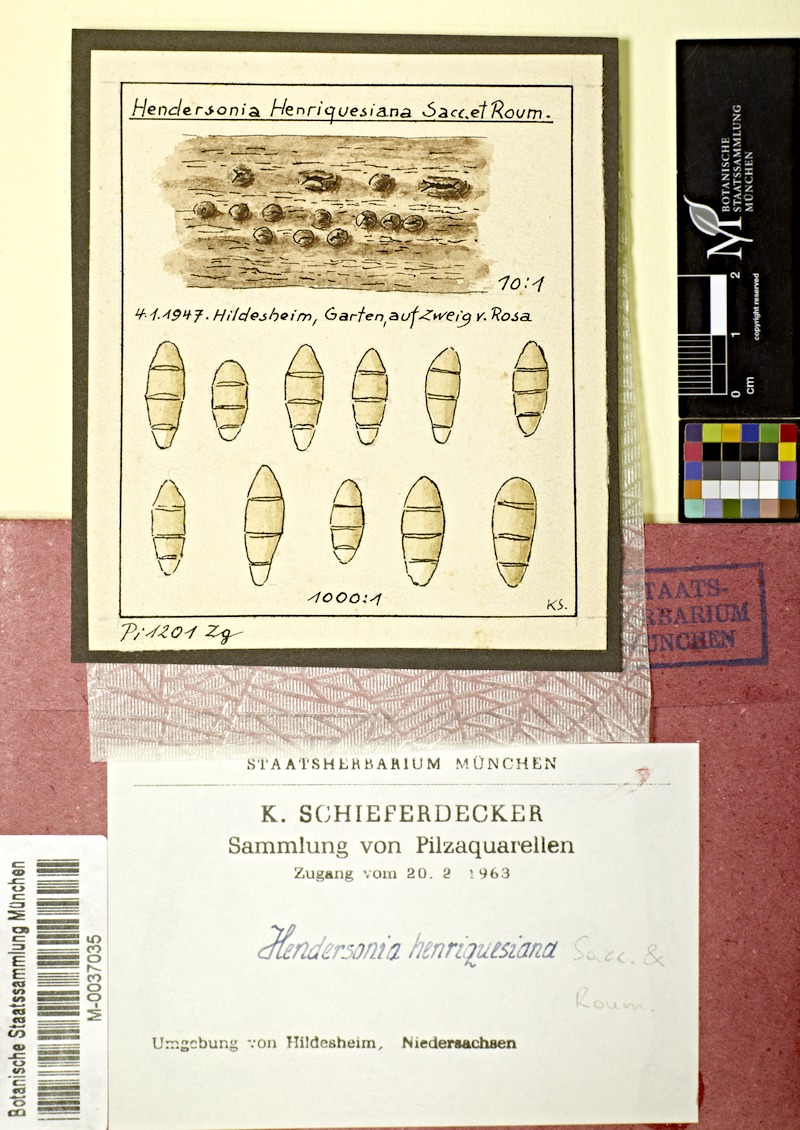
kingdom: Plantae
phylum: Tracheophyta
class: Magnoliopsida
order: Rosales
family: Rosaceae
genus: Rosa
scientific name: Rosa
